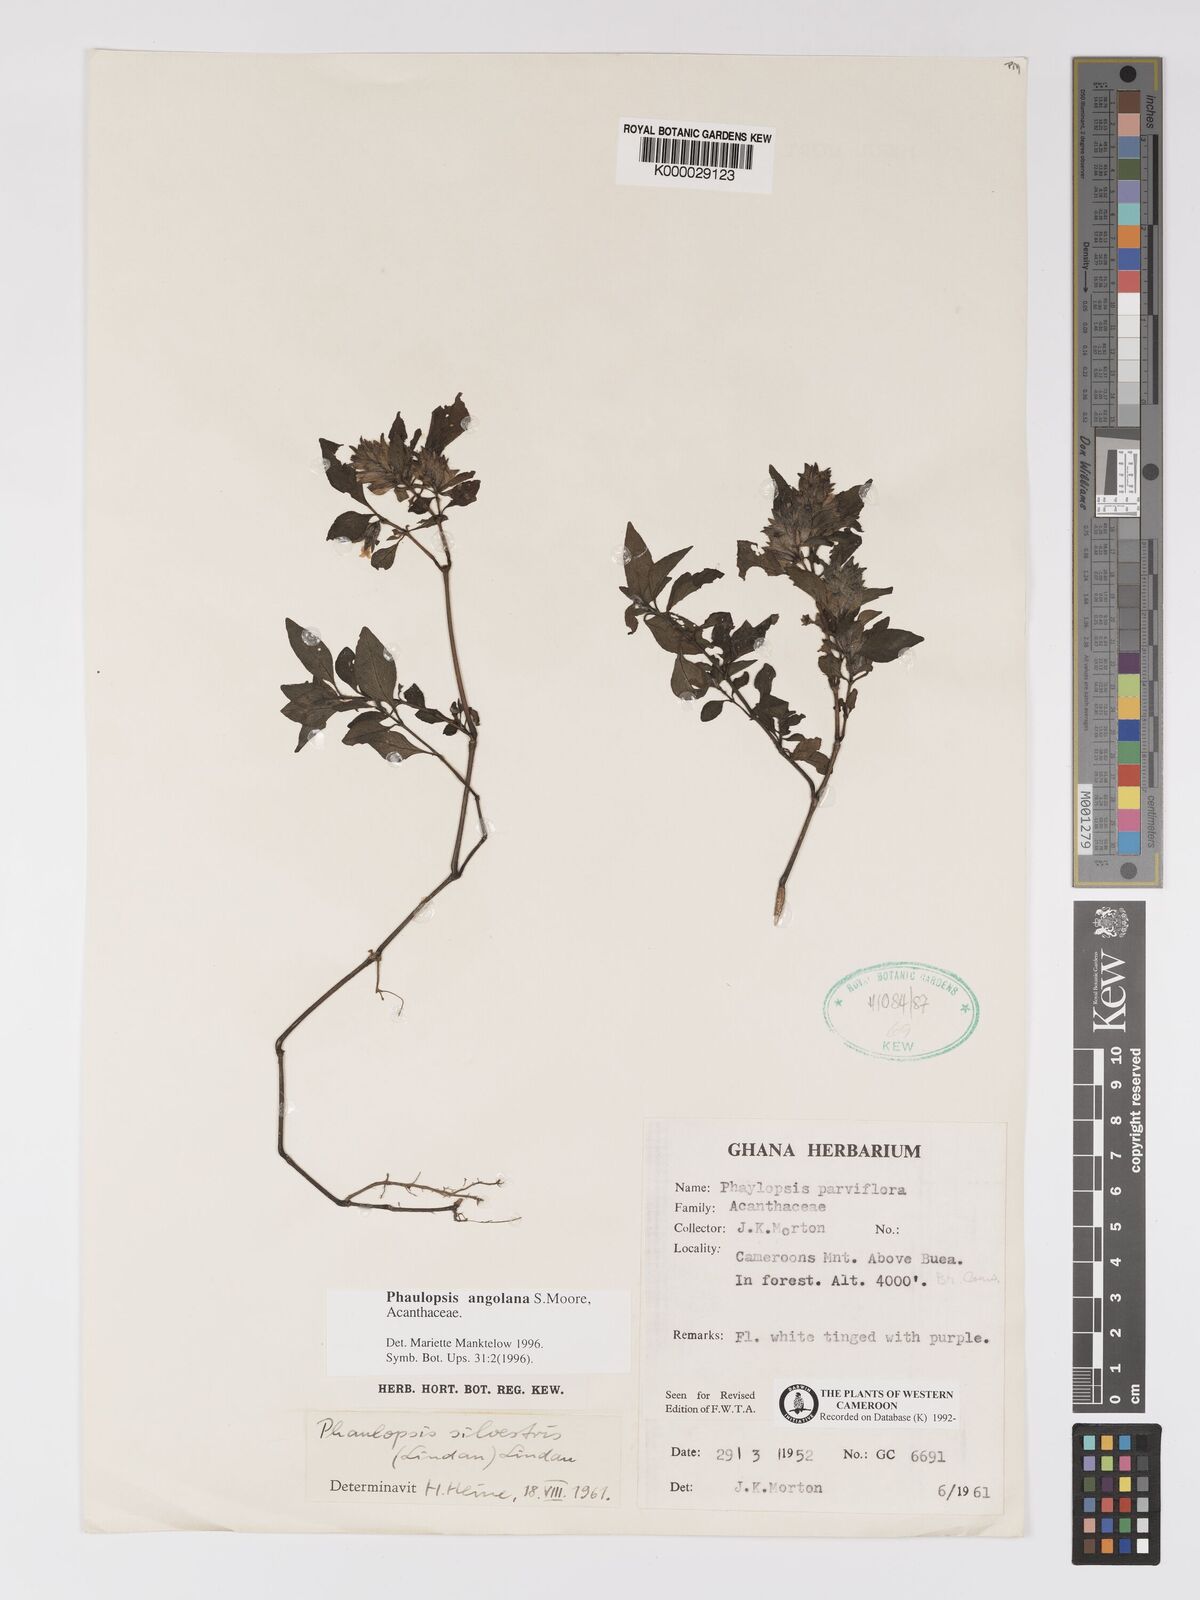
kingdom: Plantae
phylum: Tracheophyta
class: Magnoliopsida
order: Lamiales
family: Acanthaceae
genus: Phaulopsis
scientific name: Phaulopsis angolana
